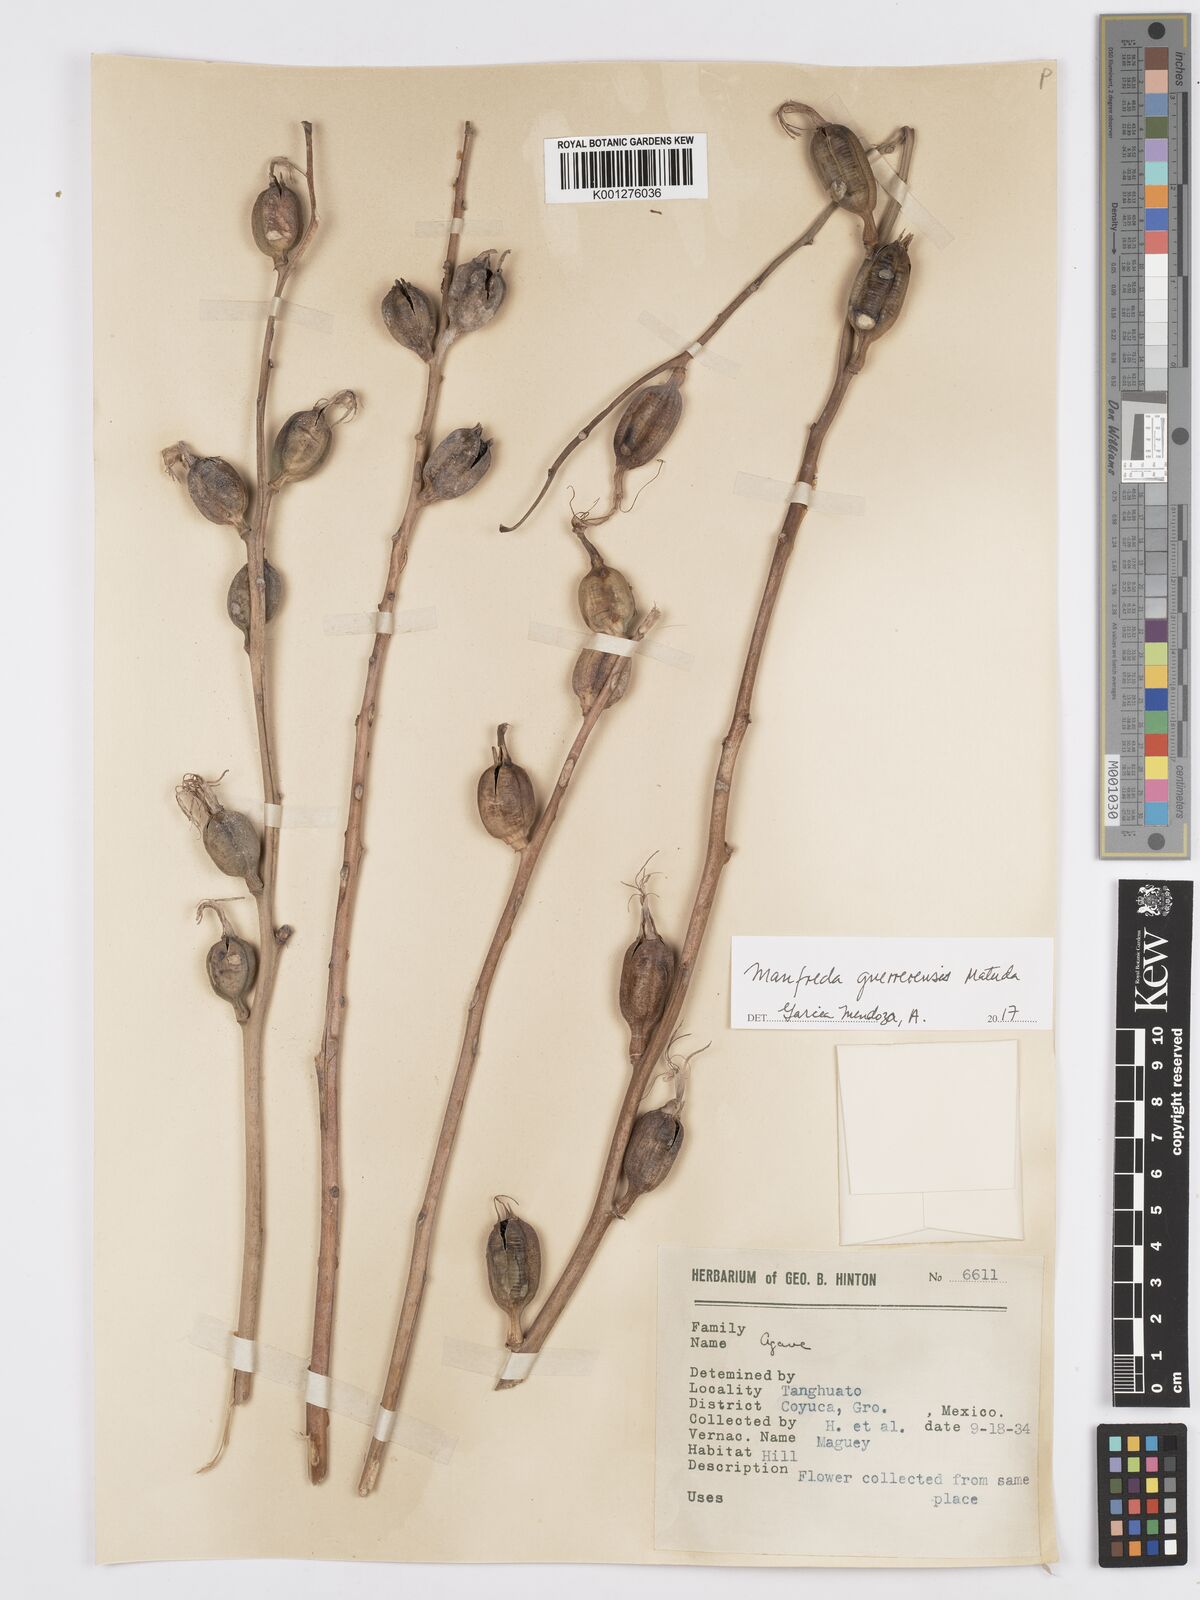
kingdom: Plantae
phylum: Tracheophyta
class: Liliopsida
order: Asparagales
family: Asparagaceae
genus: Agave
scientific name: Agave guerrerensis
